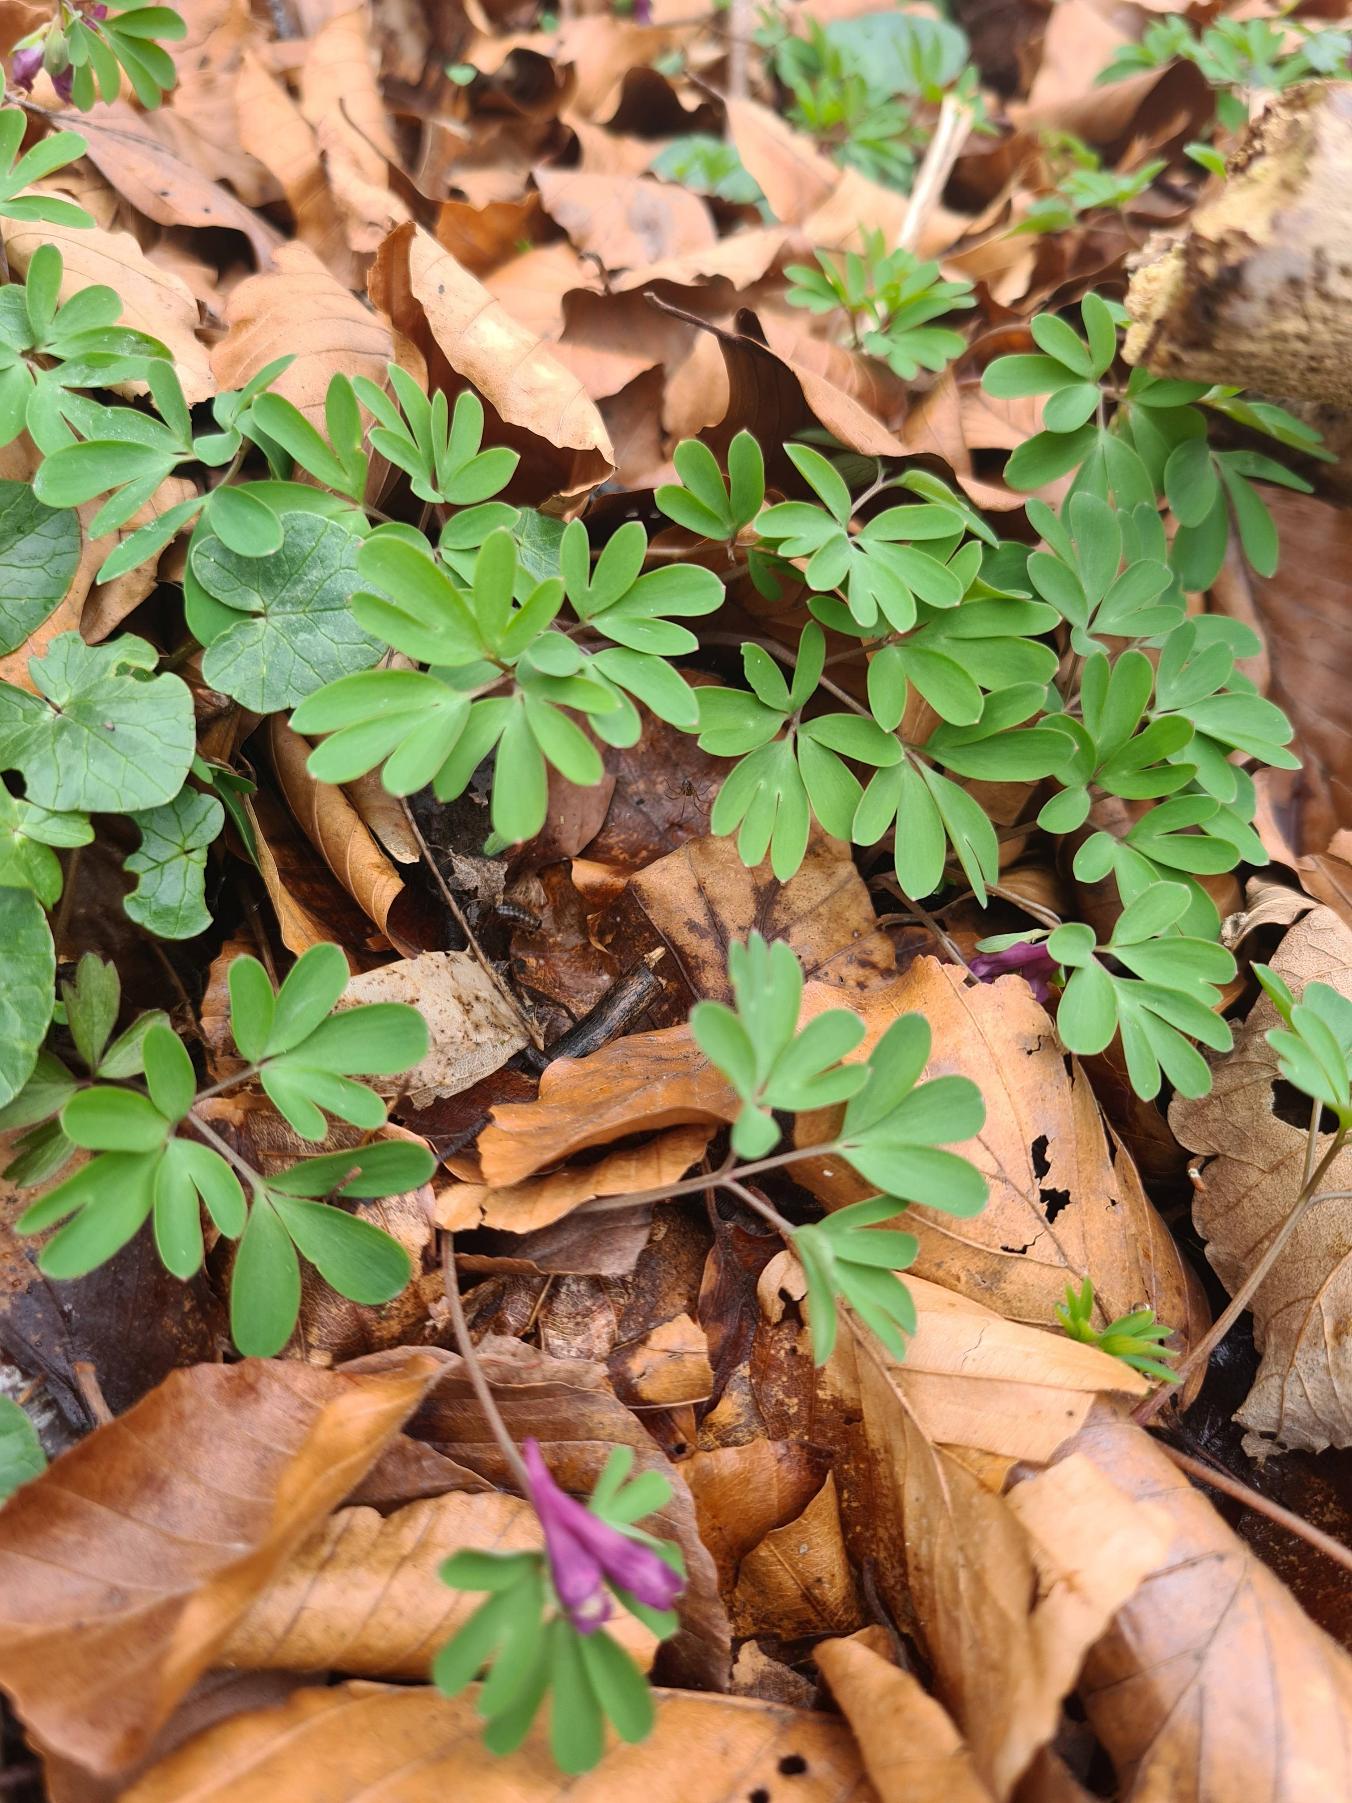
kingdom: Plantae
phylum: Tracheophyta
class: Magnoliopsida
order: Ranunculales
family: Papaveraceae
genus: Corydalis
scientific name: Corydalis intermedia
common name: Liden lærkespore
